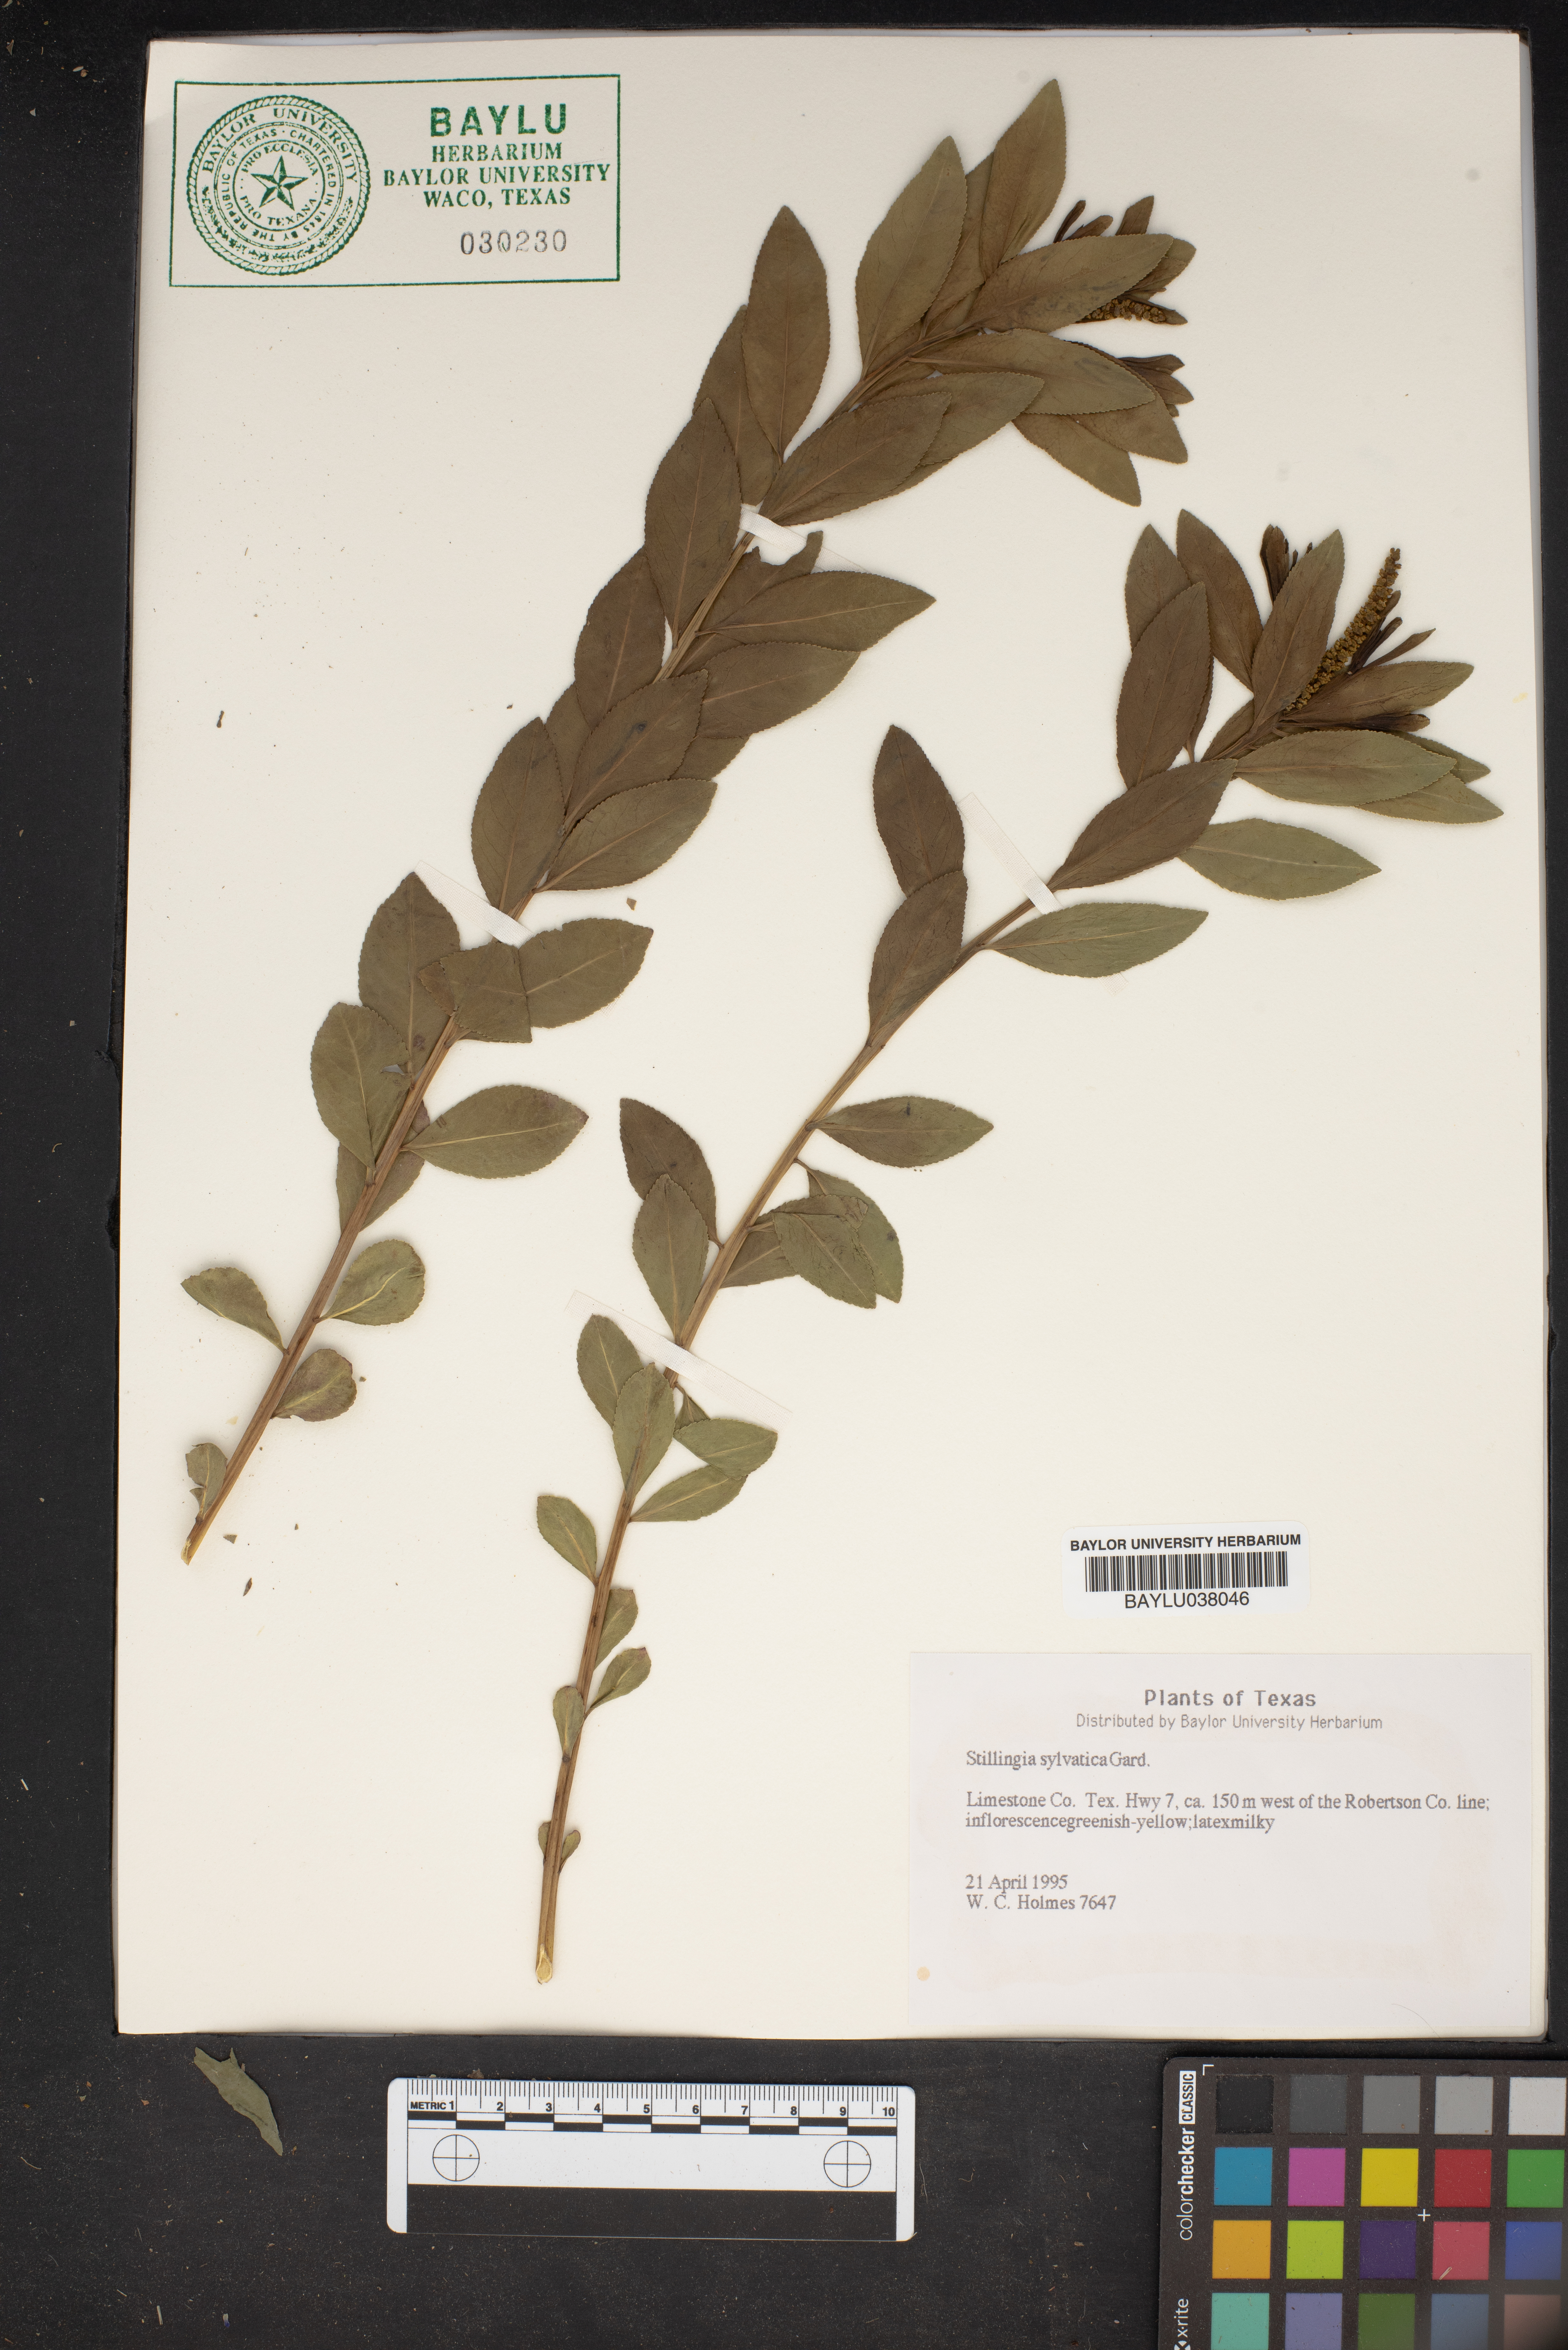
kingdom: Plantae
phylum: Tracheophyta
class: Magnoliopsida
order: Malpighiales
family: Euphorbiaceae
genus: Stillingia
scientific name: Stillingia sylvatica
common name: Queen's-delight
